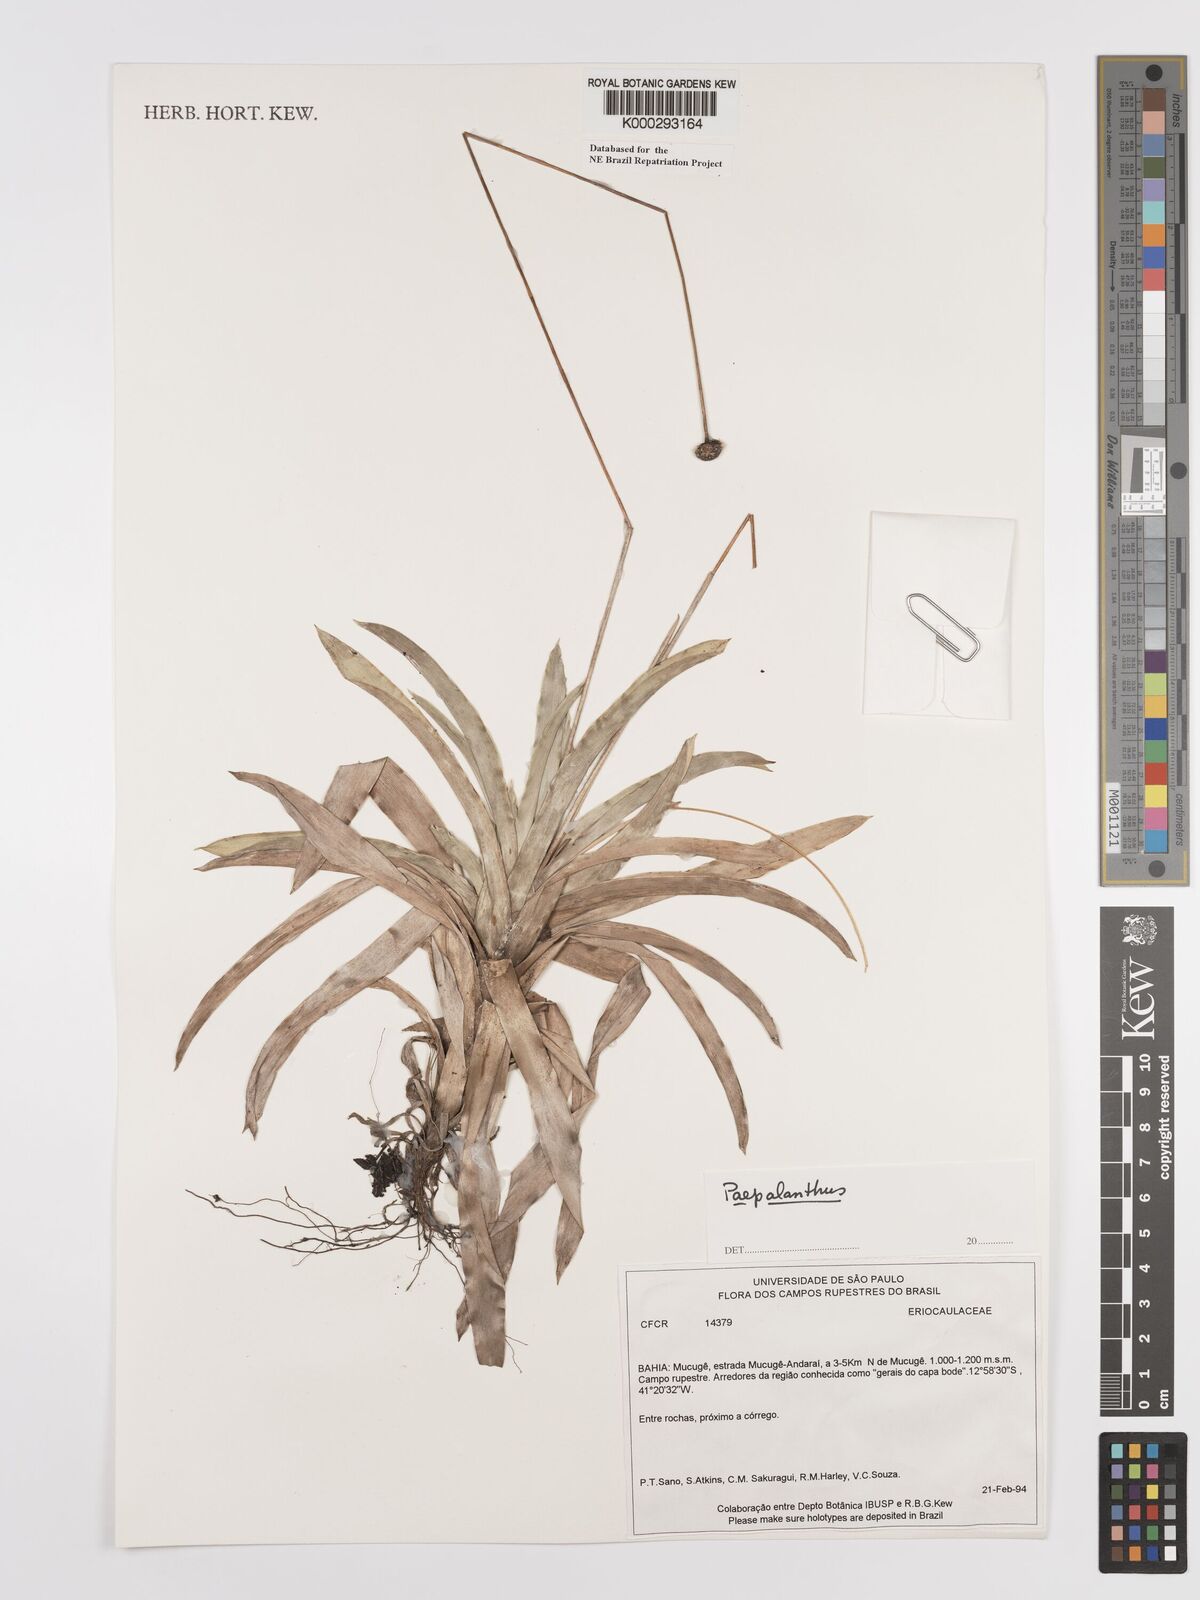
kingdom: Plantae
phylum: Tracheophyta
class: Liliopsida
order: Poales
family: Eriocaulaceae
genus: Paepalanthus
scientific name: Paepalanthus
